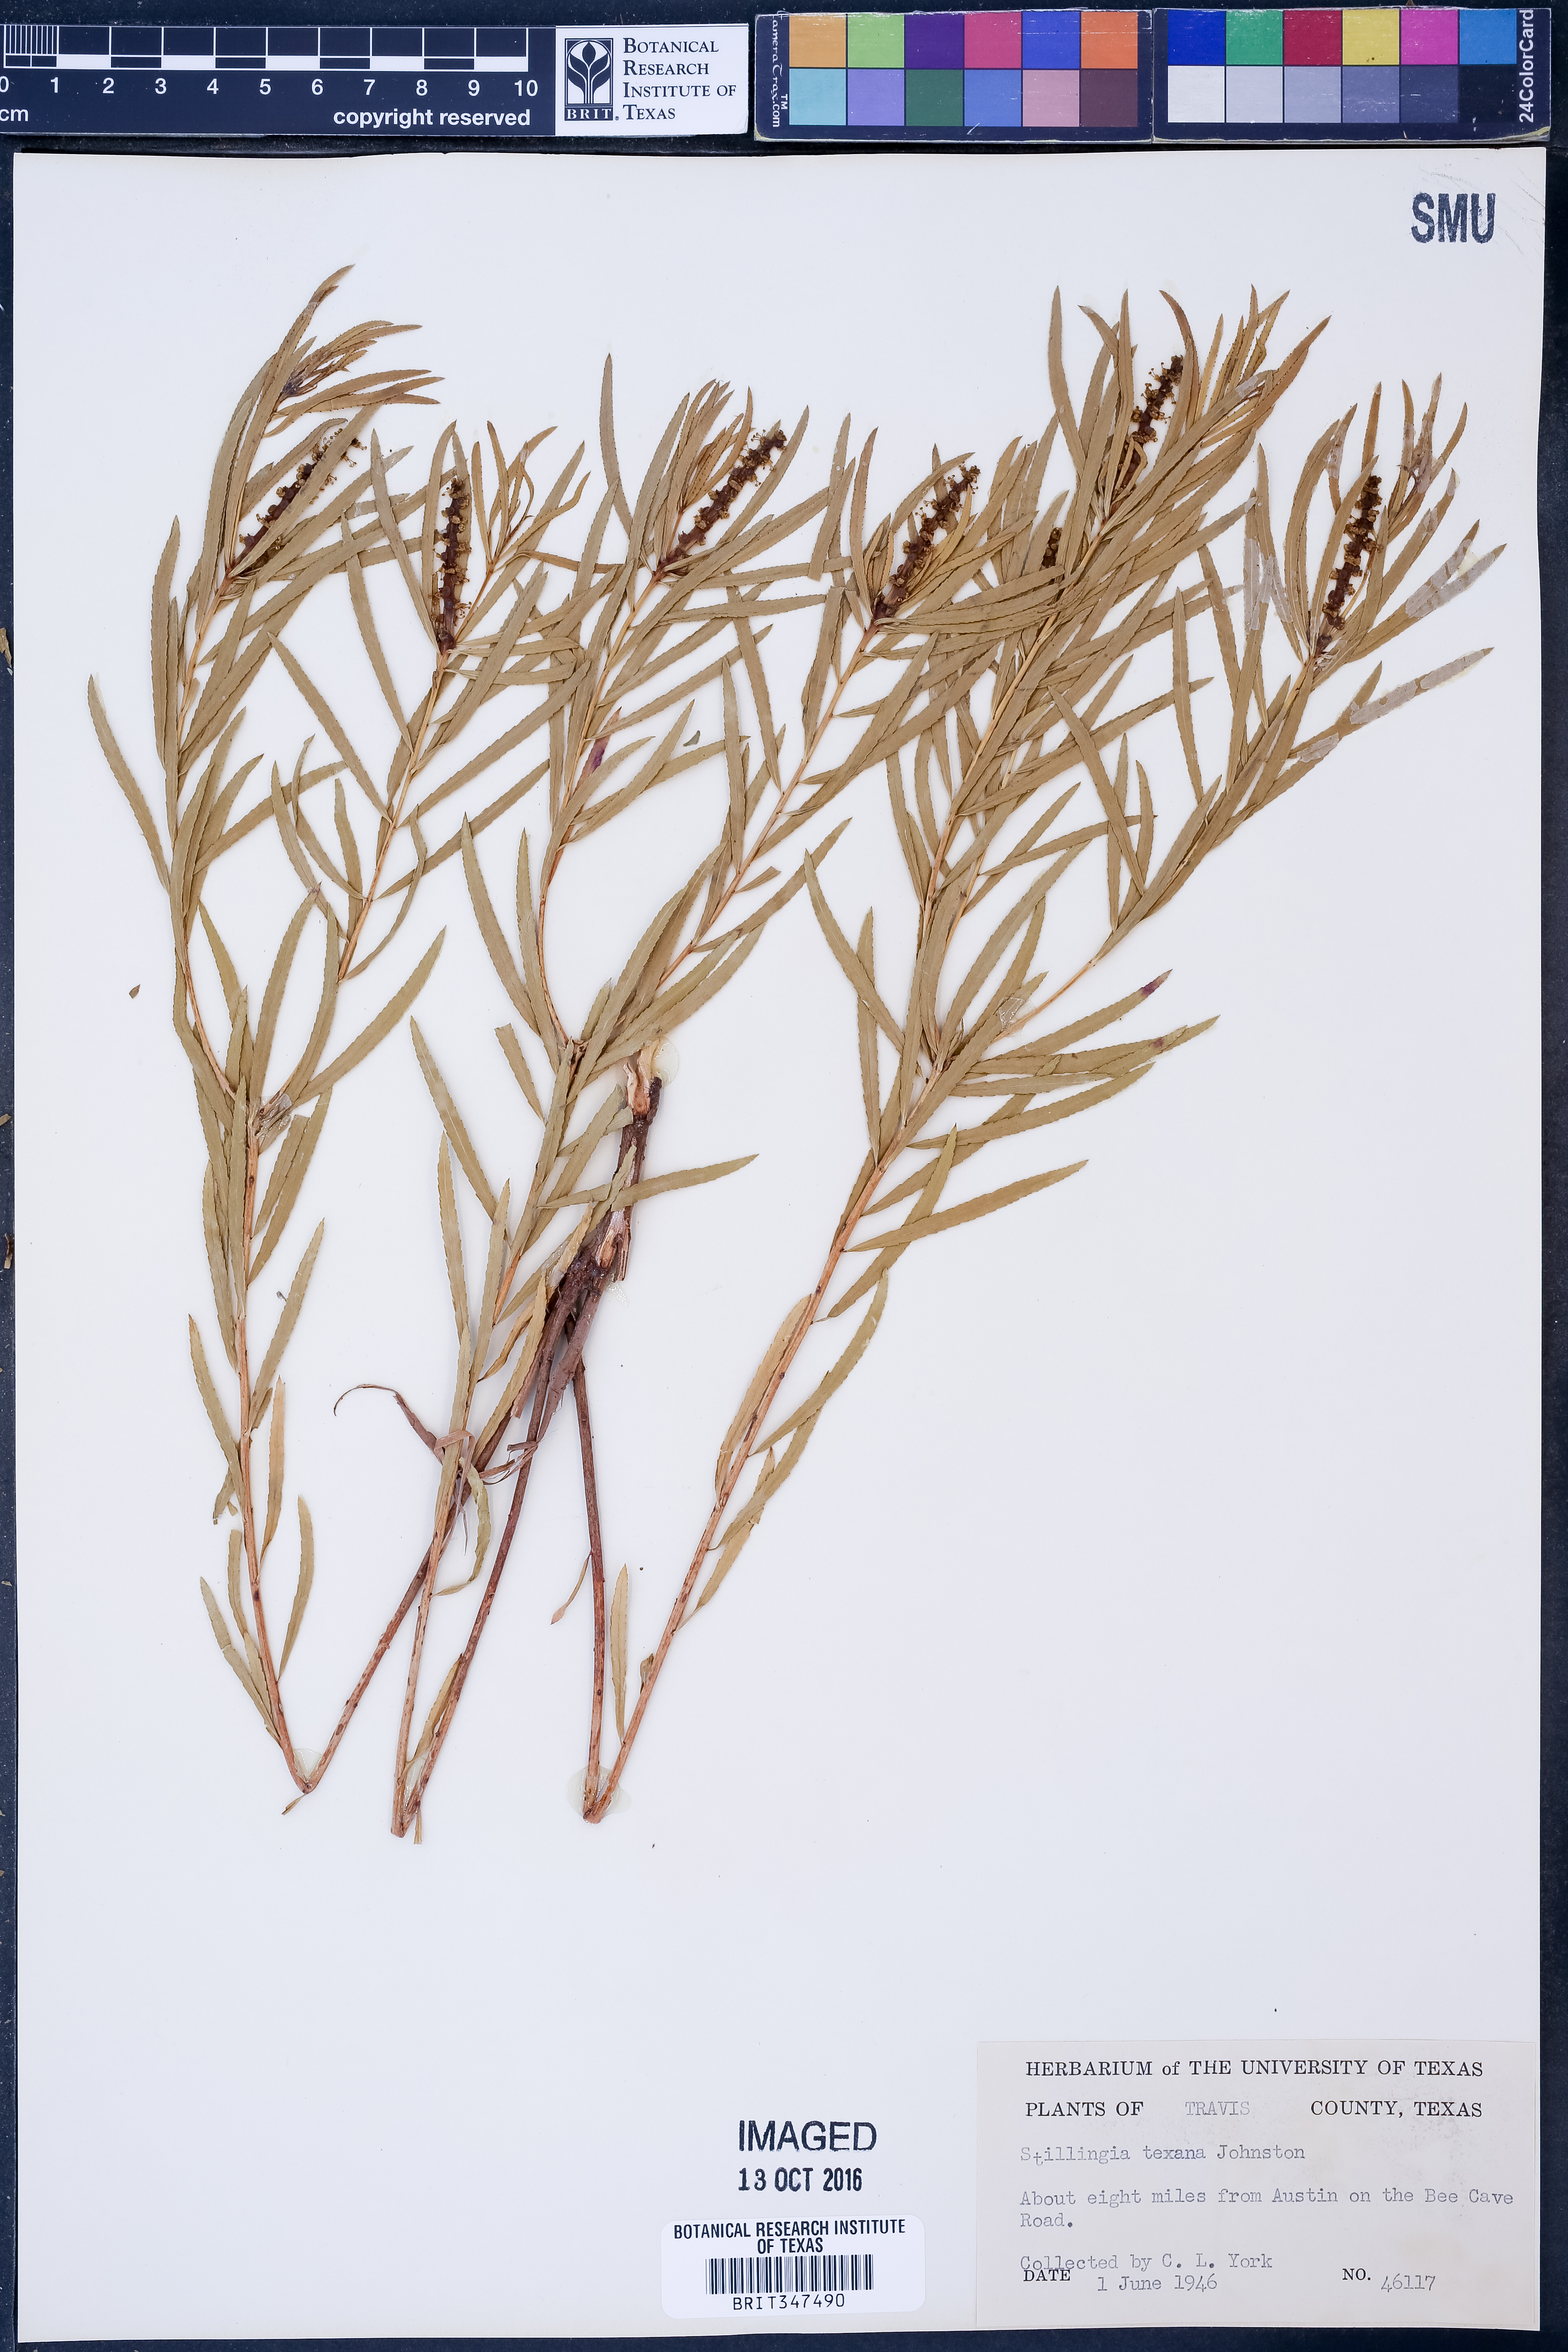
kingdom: Plantae
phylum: Tracheophyta
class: Magnoliopsida
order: Malpighiales
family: Euphorbiaceae
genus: Stillingia
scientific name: Stillingia texana
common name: Texas stillingia
